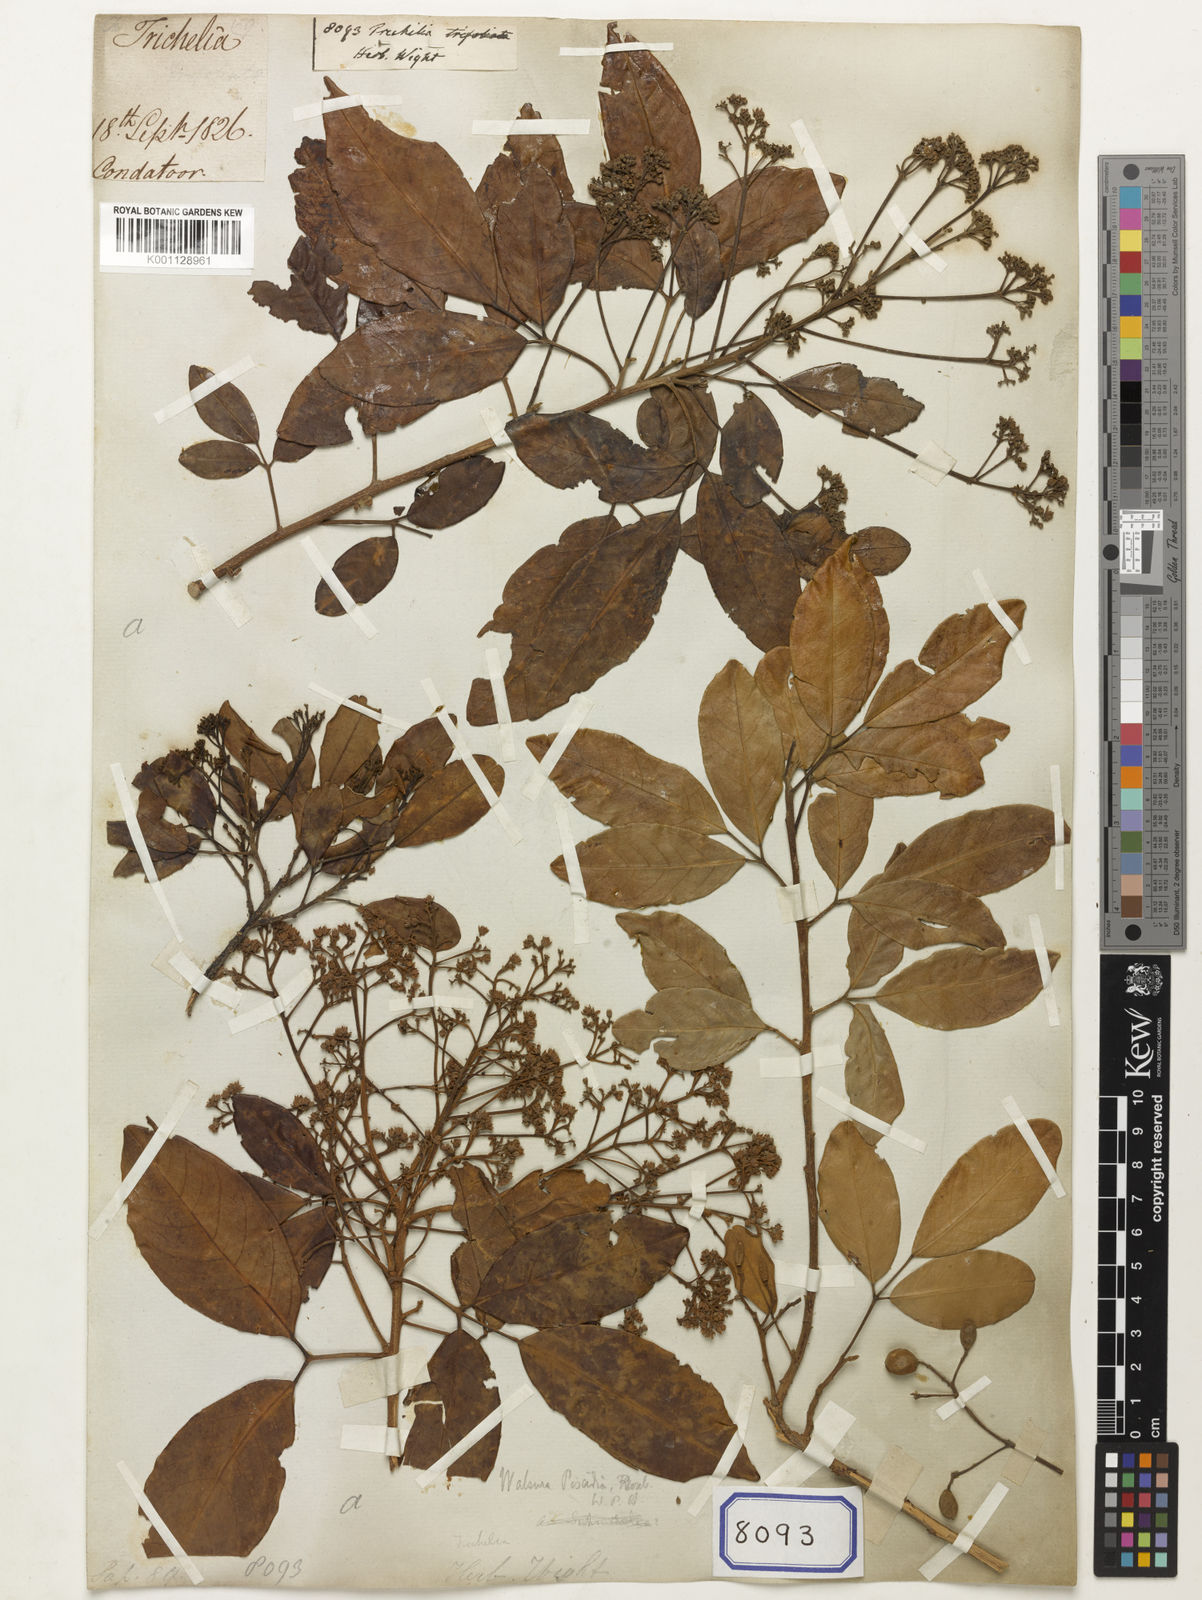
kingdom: Plantae
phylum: Tracheophyta
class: Magnoliopsida
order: Sapindales
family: Meliaceae
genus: Trichilia
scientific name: Trichilia trifolia
